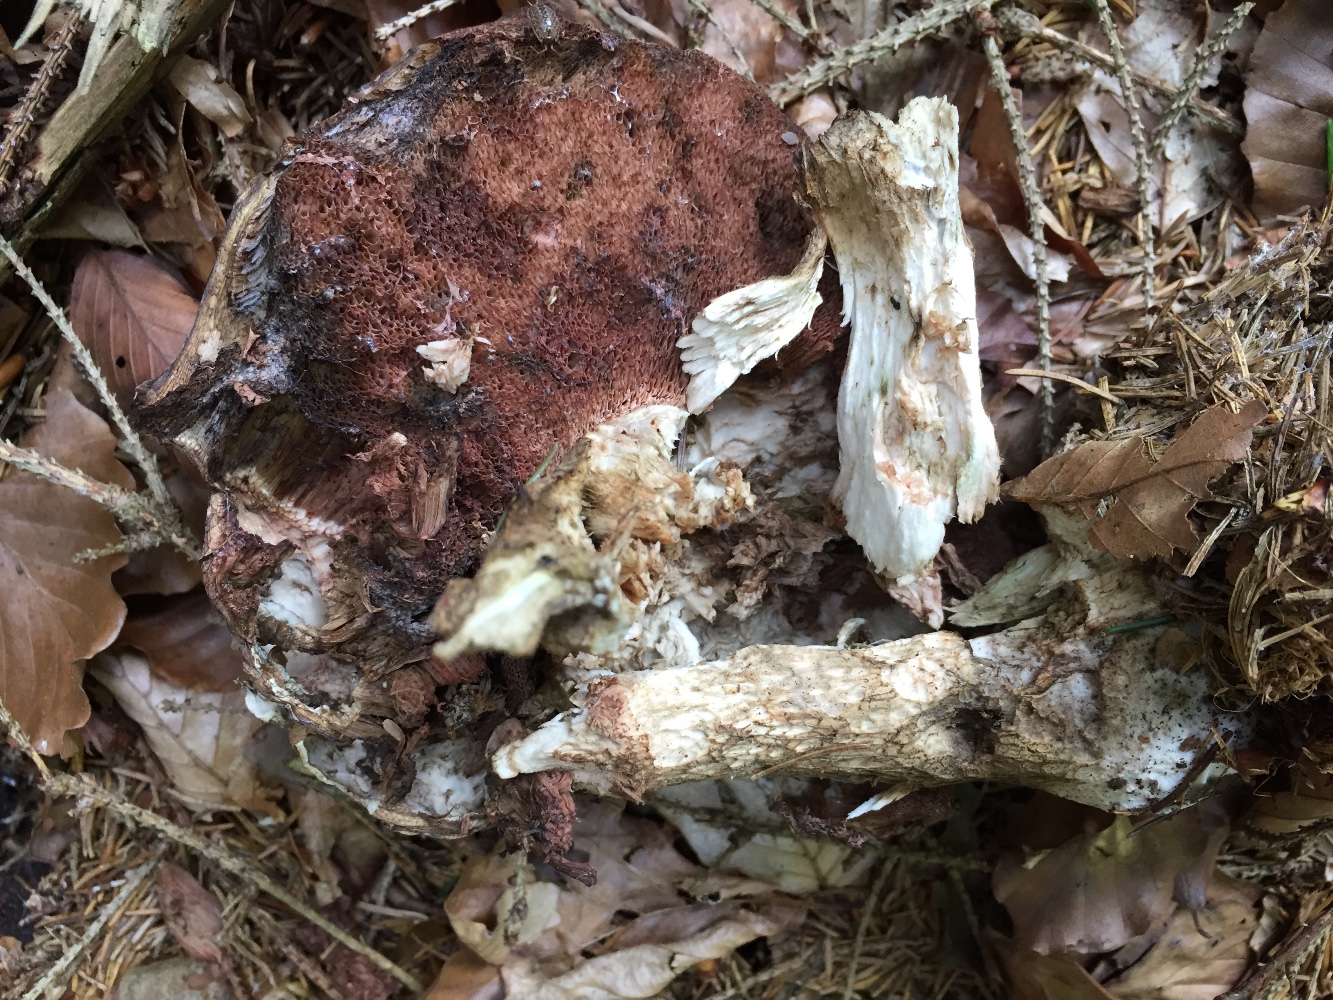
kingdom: Fungi
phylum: Basidiomycota
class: Agaricomycetes
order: Boletales
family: Boletaceae
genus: Tylopilus
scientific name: Tylopilus felleus
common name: galderørhat
